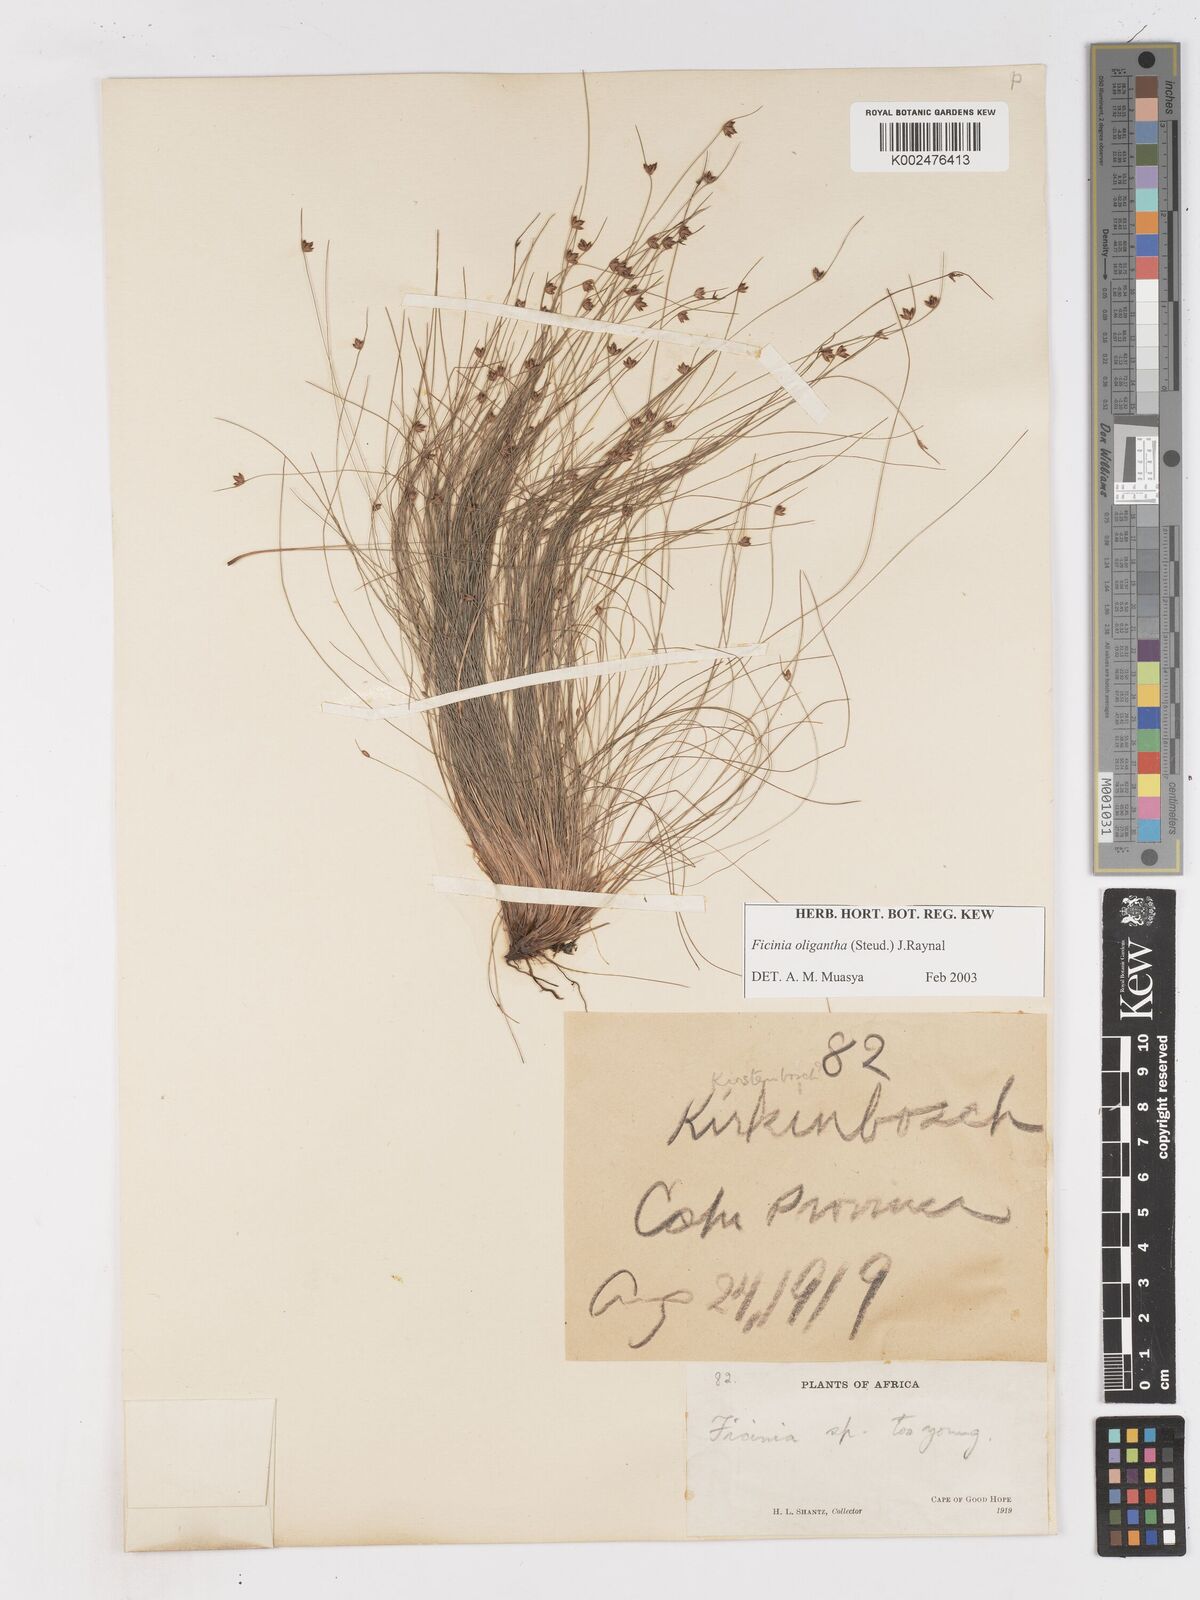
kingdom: Plantae
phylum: Tracheophyta
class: Liliopsida
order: Poales
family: Cyperaceae
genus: Ficinia
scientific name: Ficinia
